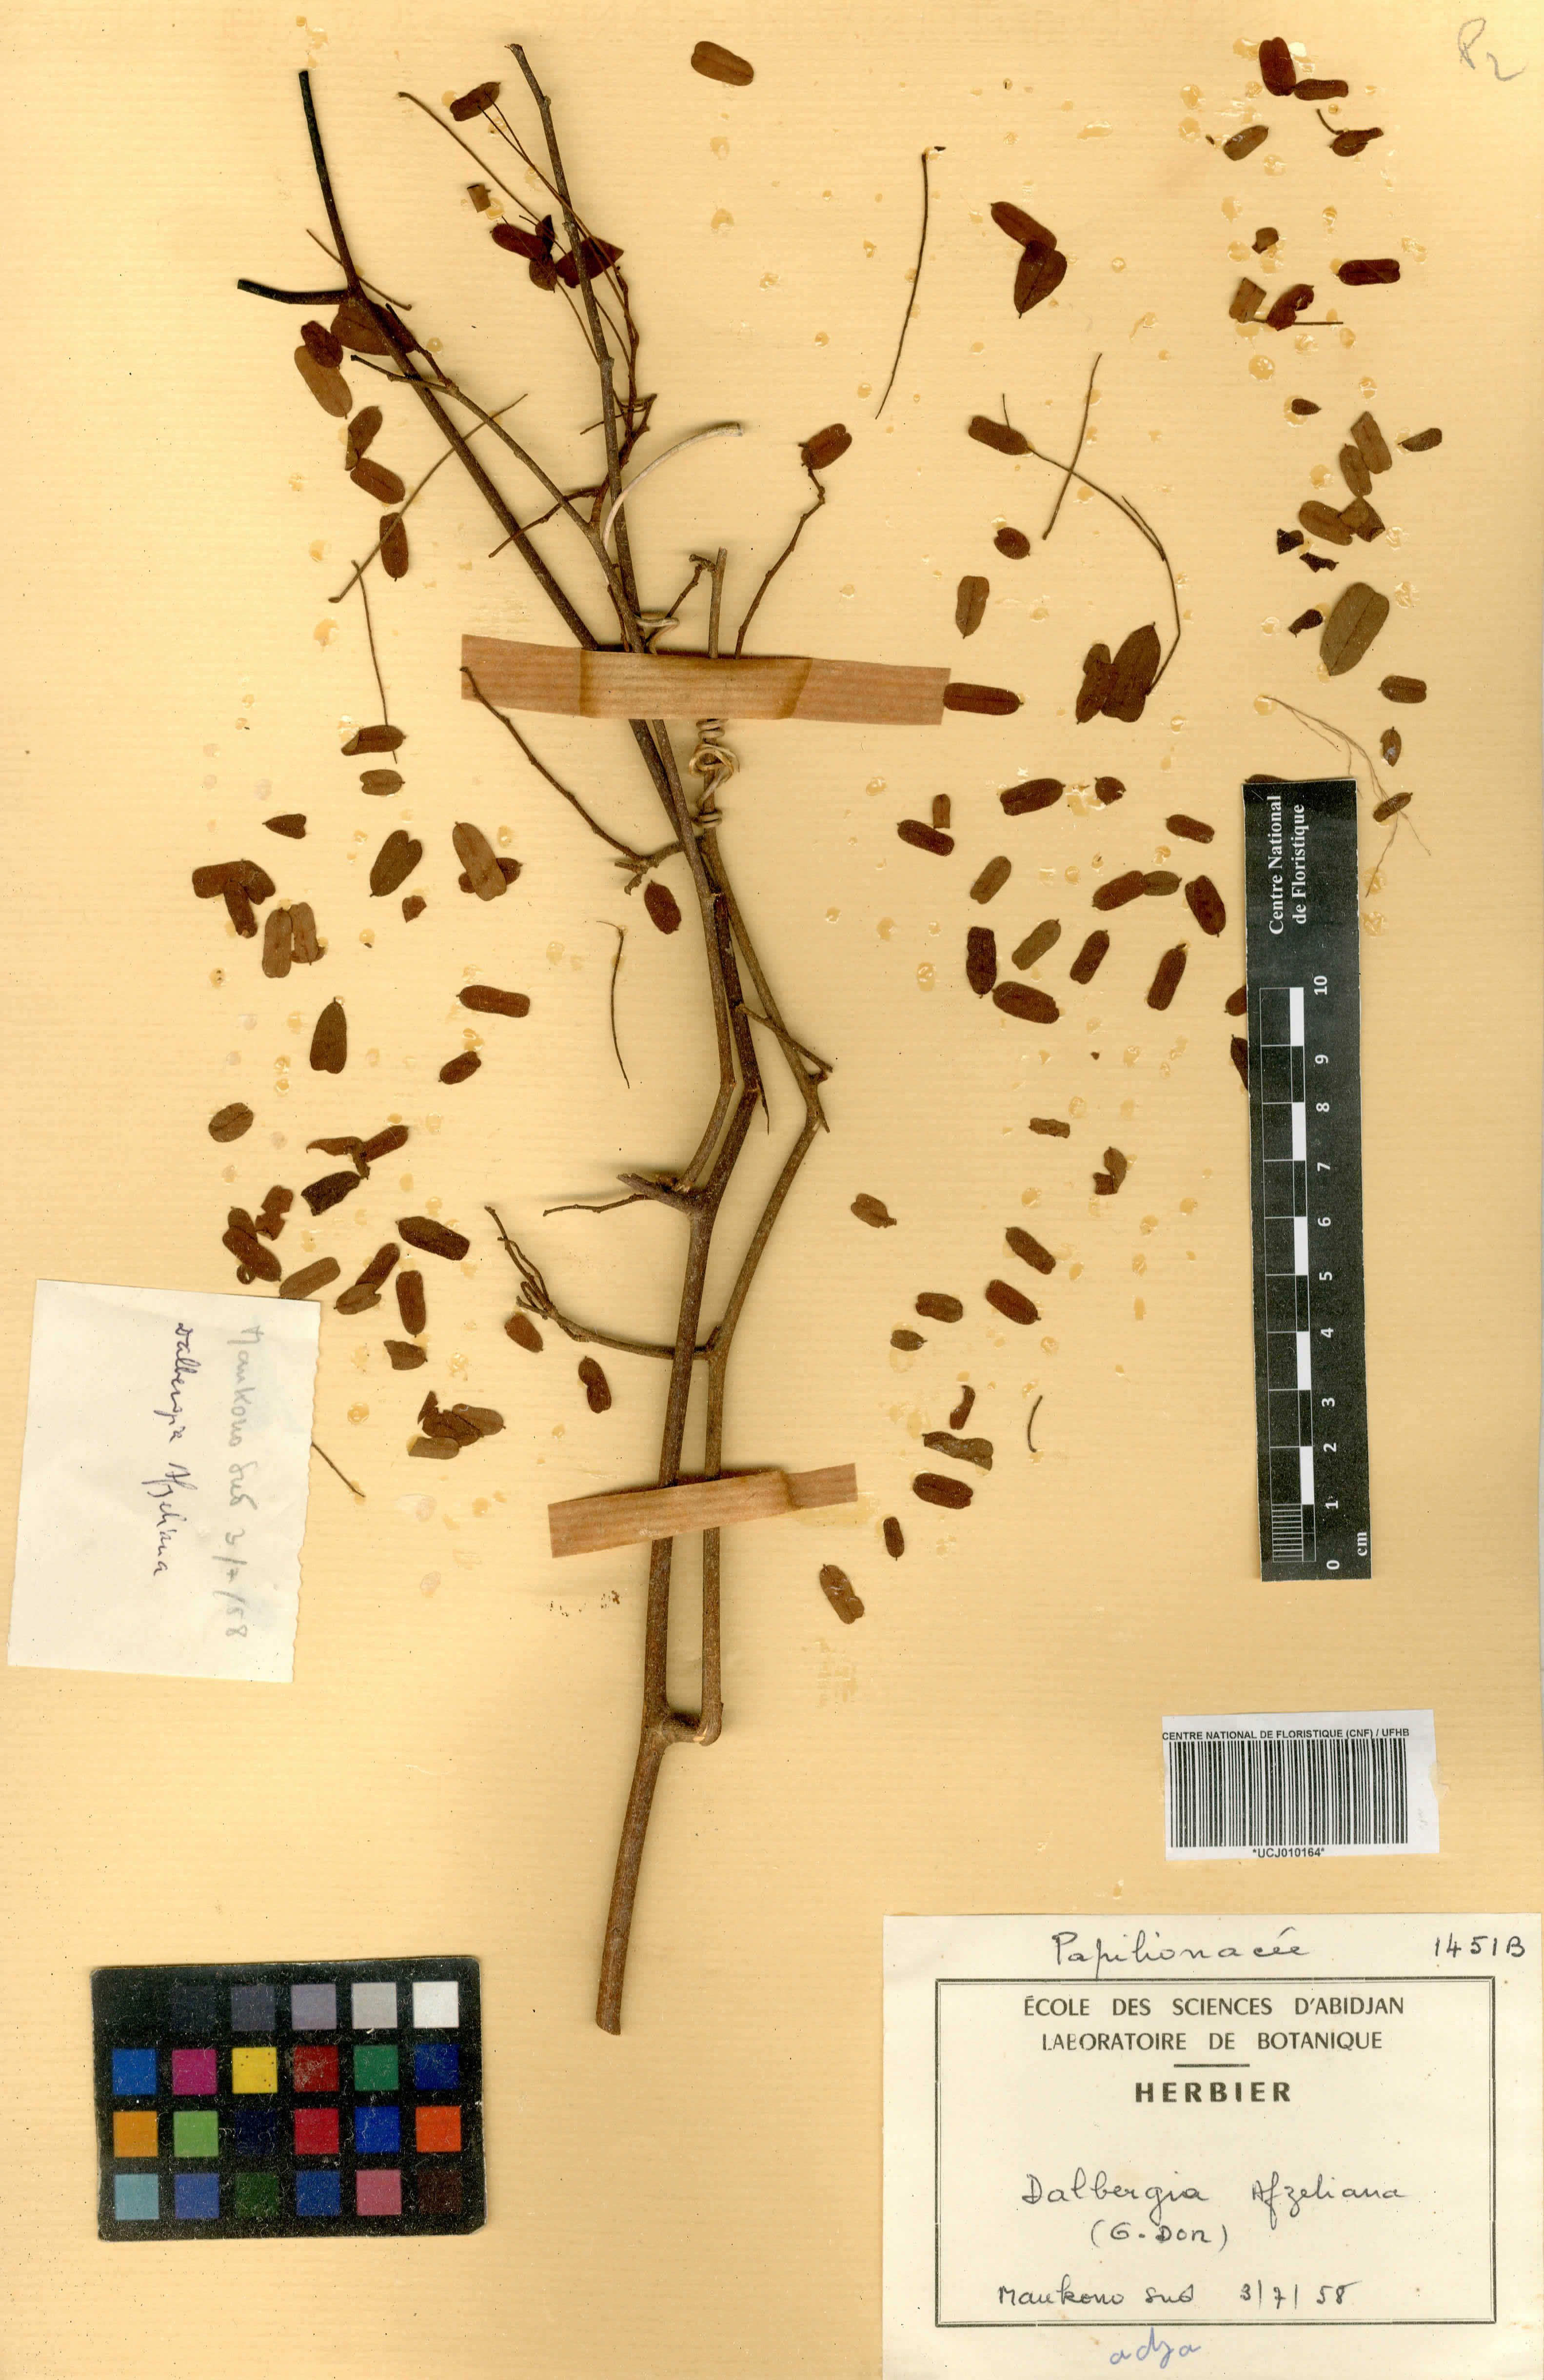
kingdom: Plantae
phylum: Tracheophyta
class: Magnoliopsida
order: Fabales
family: Fabaceae
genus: Dalbergia
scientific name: Dalbergia afzeliana
